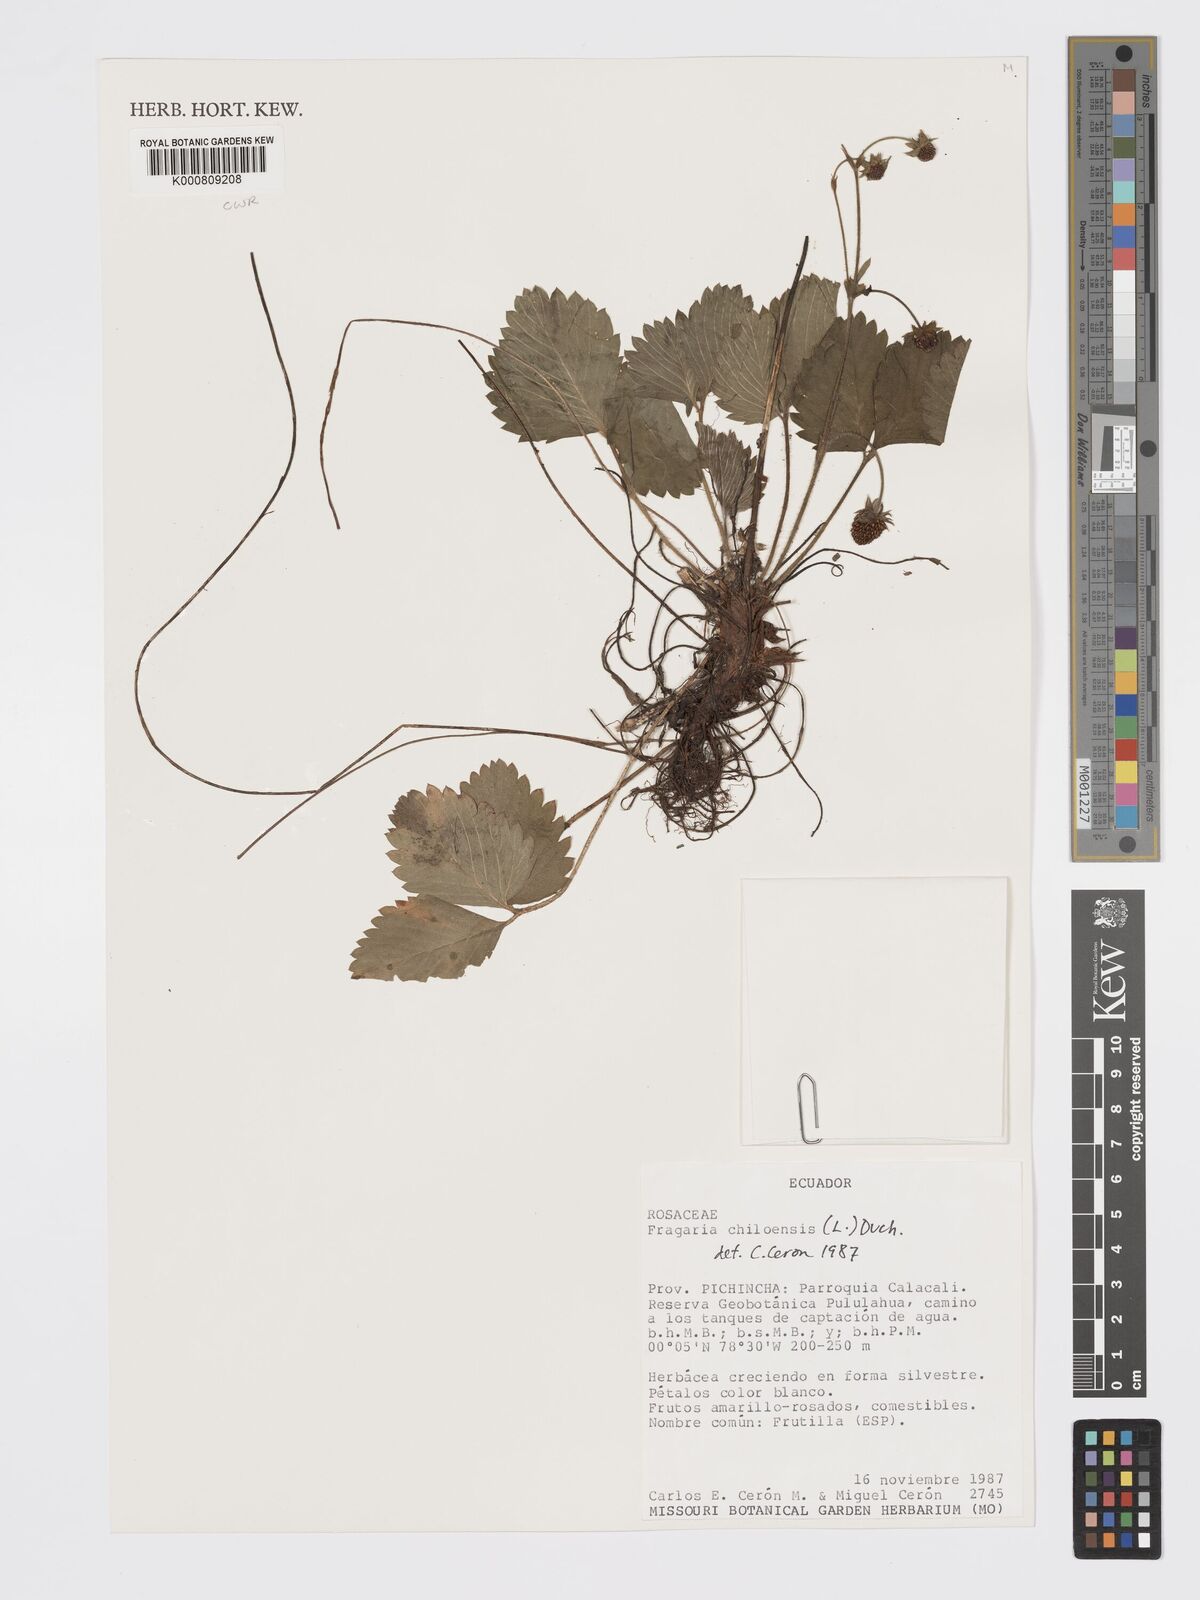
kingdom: Plantae
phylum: Tracheophyta
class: Magnoliopsida
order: Rosales
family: Rosaceae
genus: Fragaria
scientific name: Fragaria
